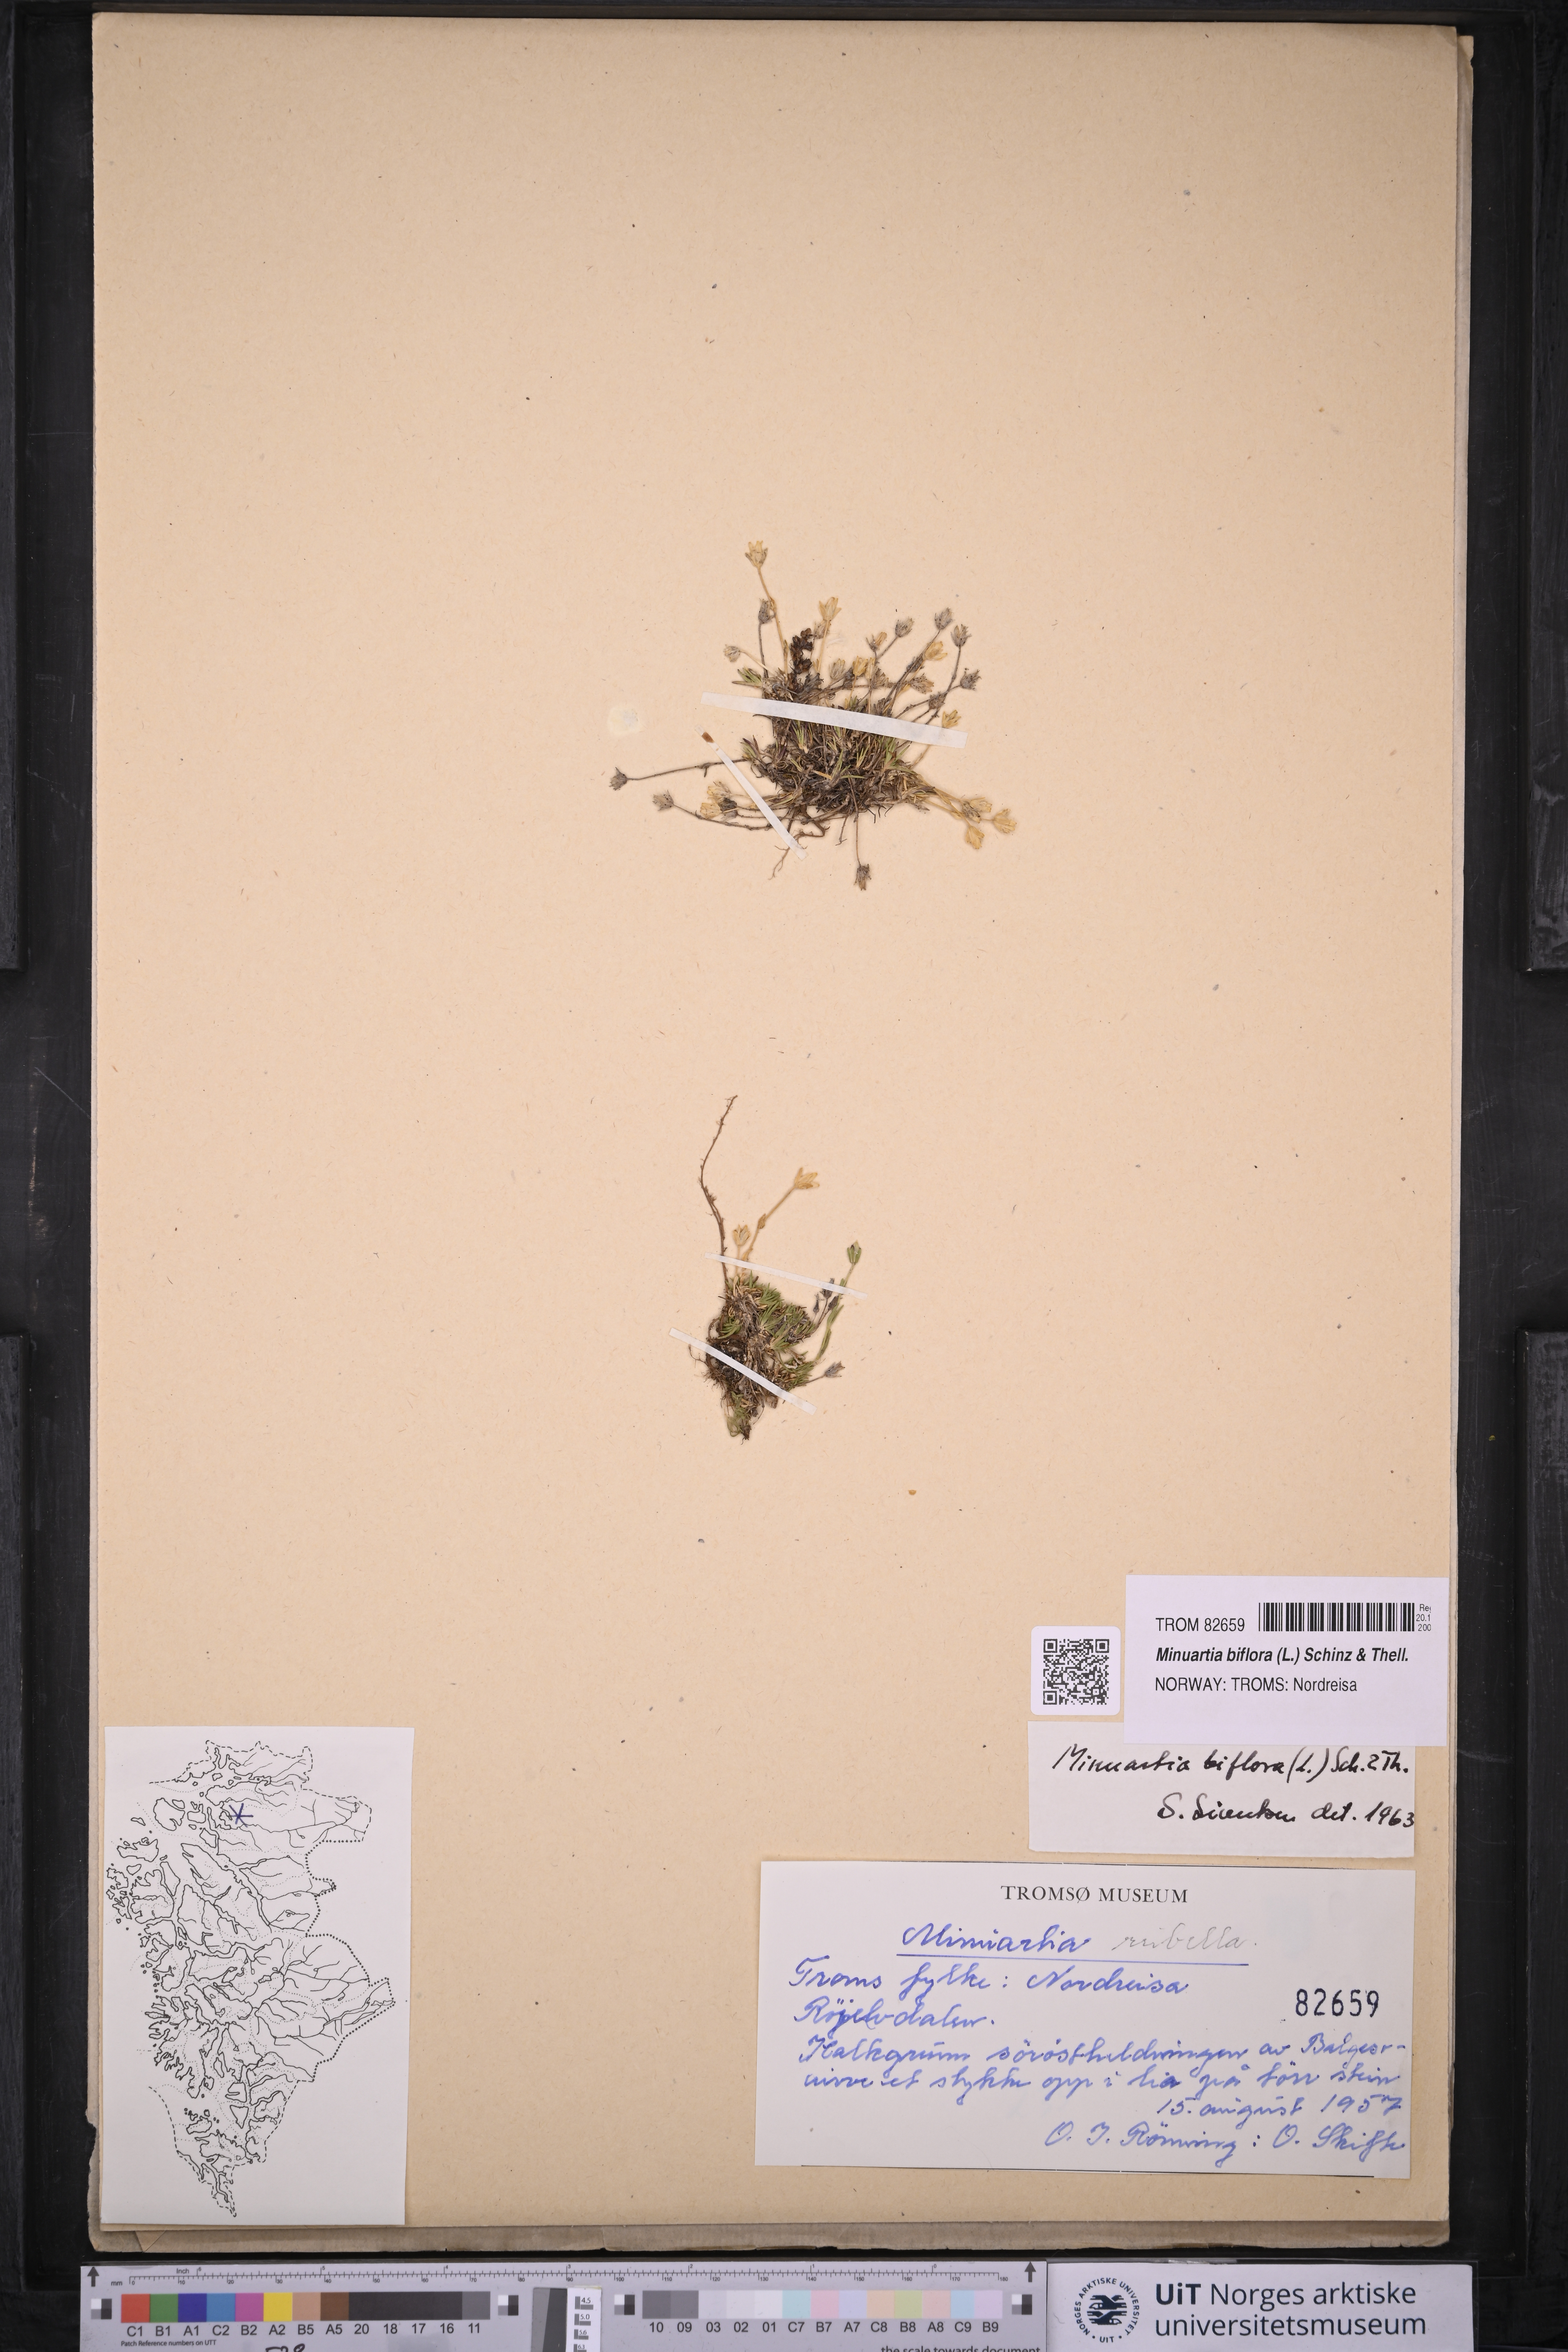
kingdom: Plantae
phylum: Tracheophyta
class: Magnoliopsida
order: Caryophyllales
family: Caryophyllaceae
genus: Cherleria
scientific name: Cherleria biflora
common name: Mountain sandwort
